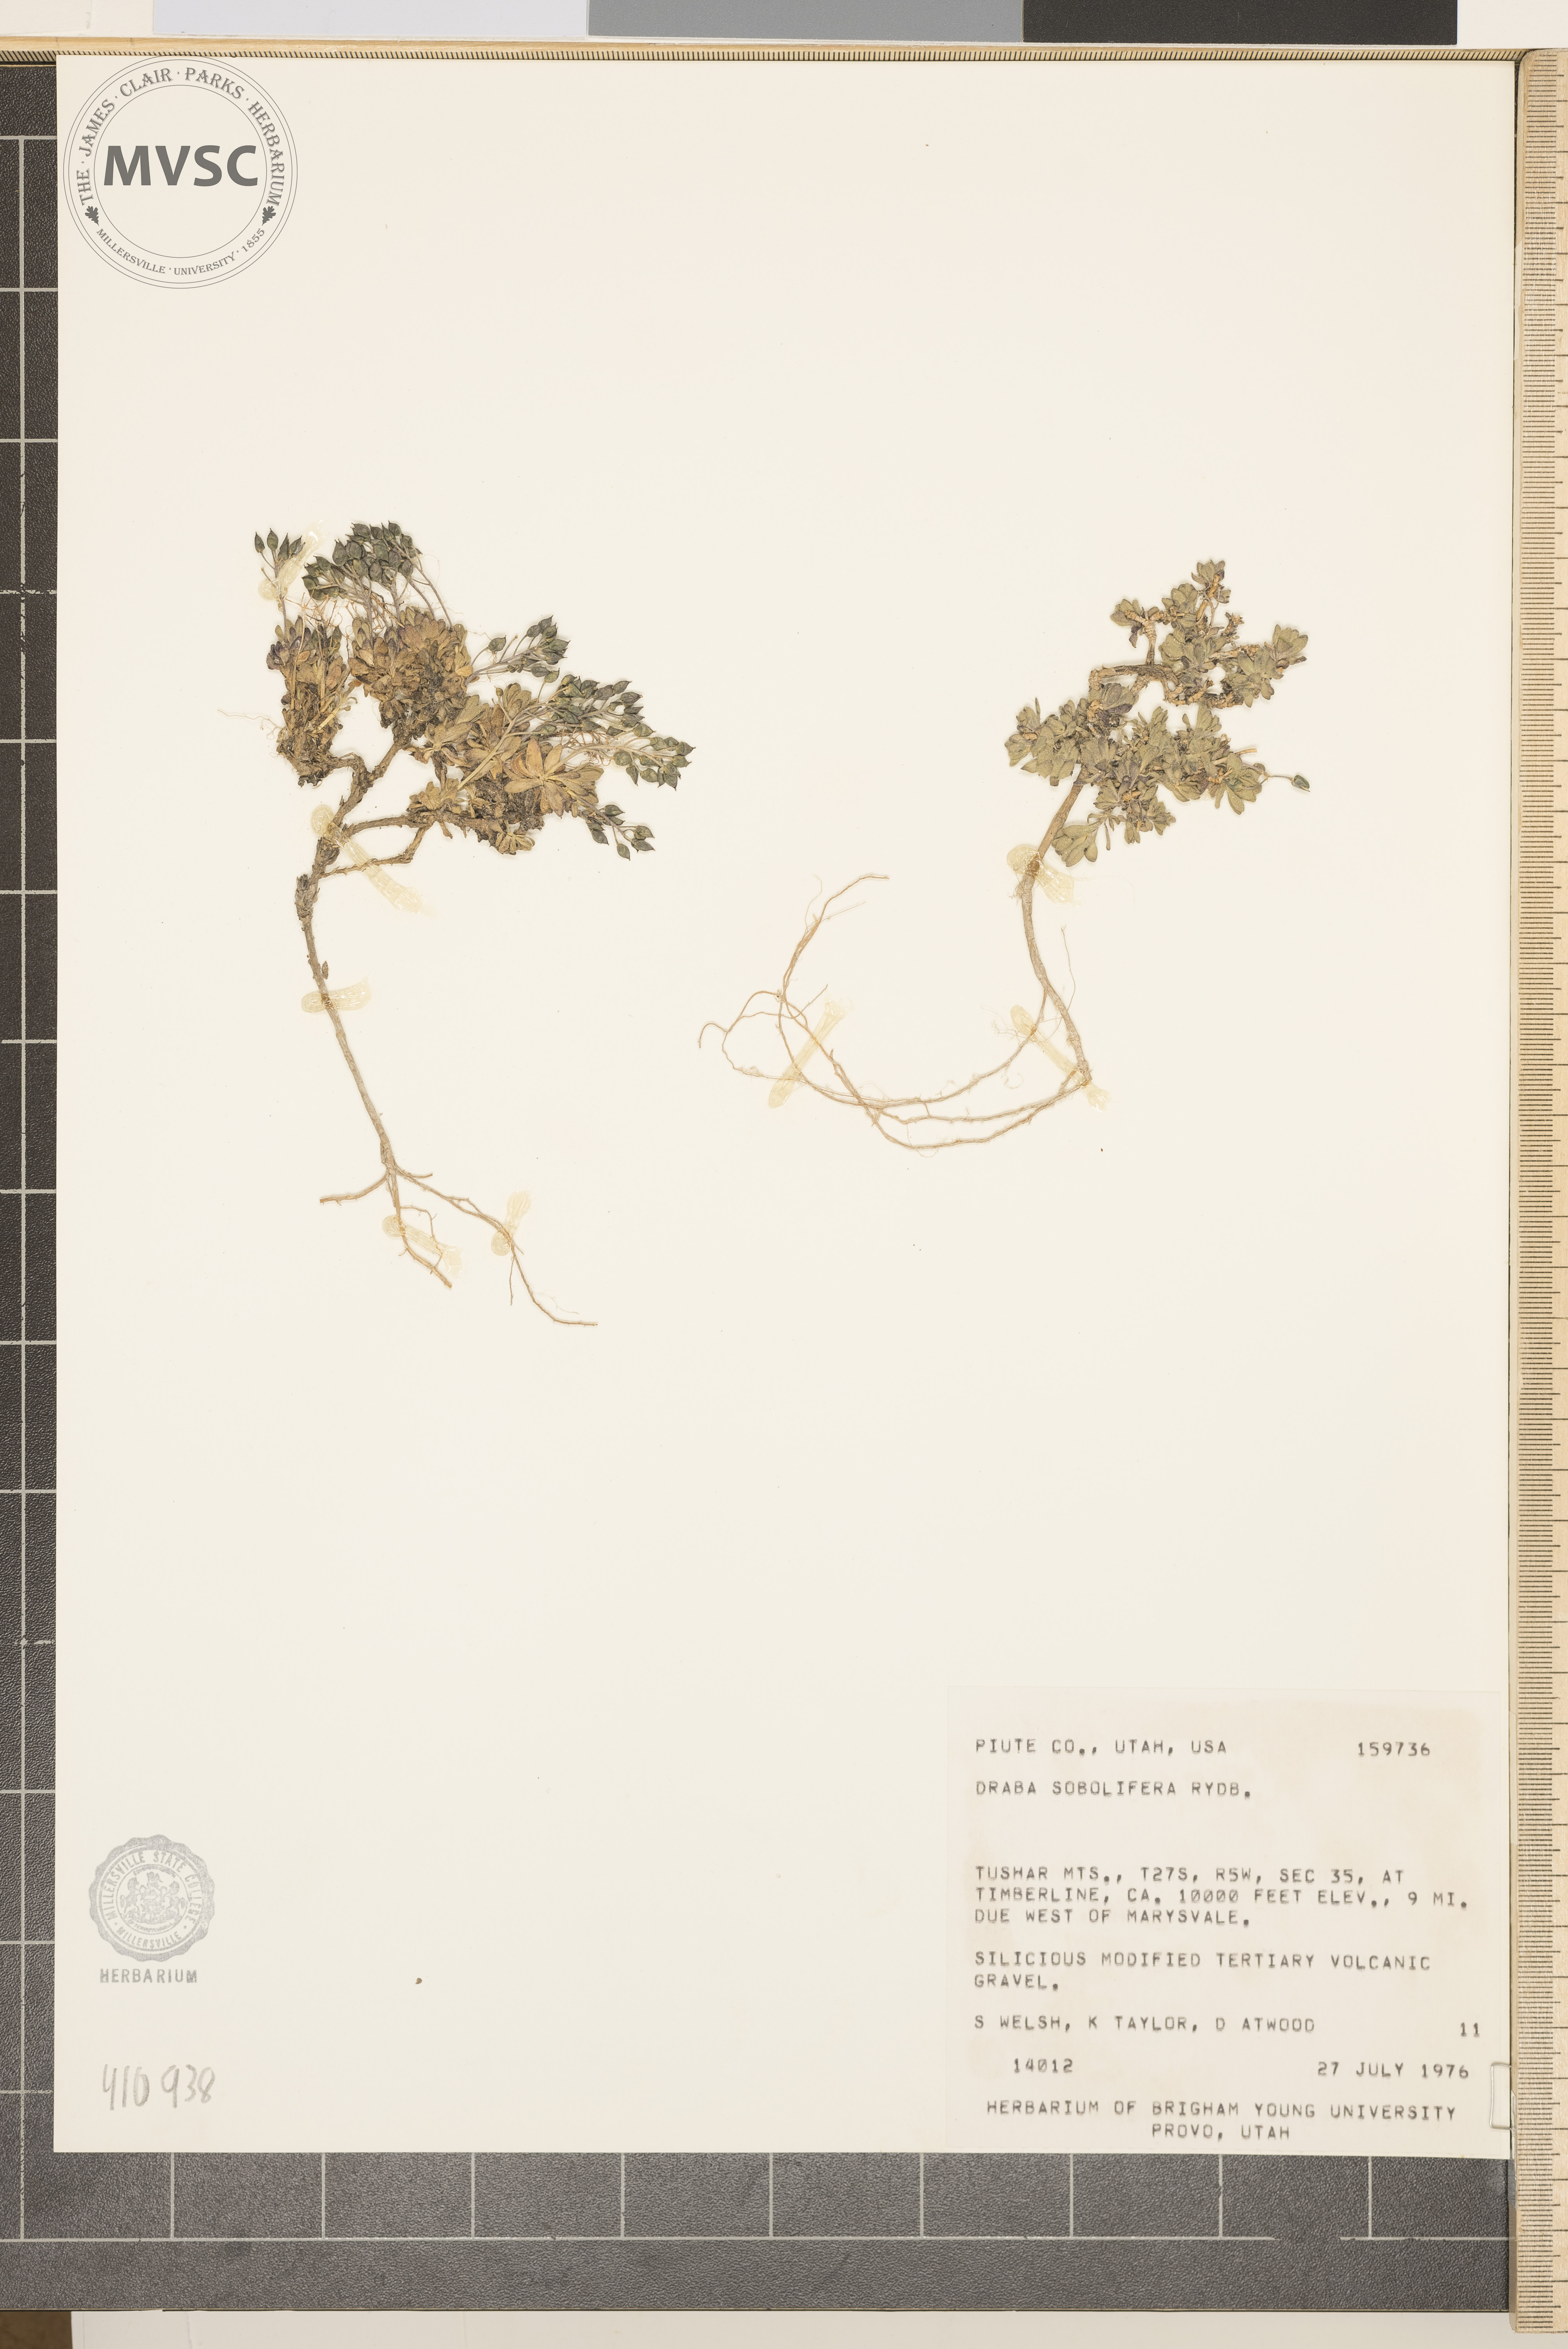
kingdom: Plantae
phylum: Tracheophyta
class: Magnoliopsida
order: Brassicales
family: Brassicaceae
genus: Draba
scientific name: Draba sobolifera
